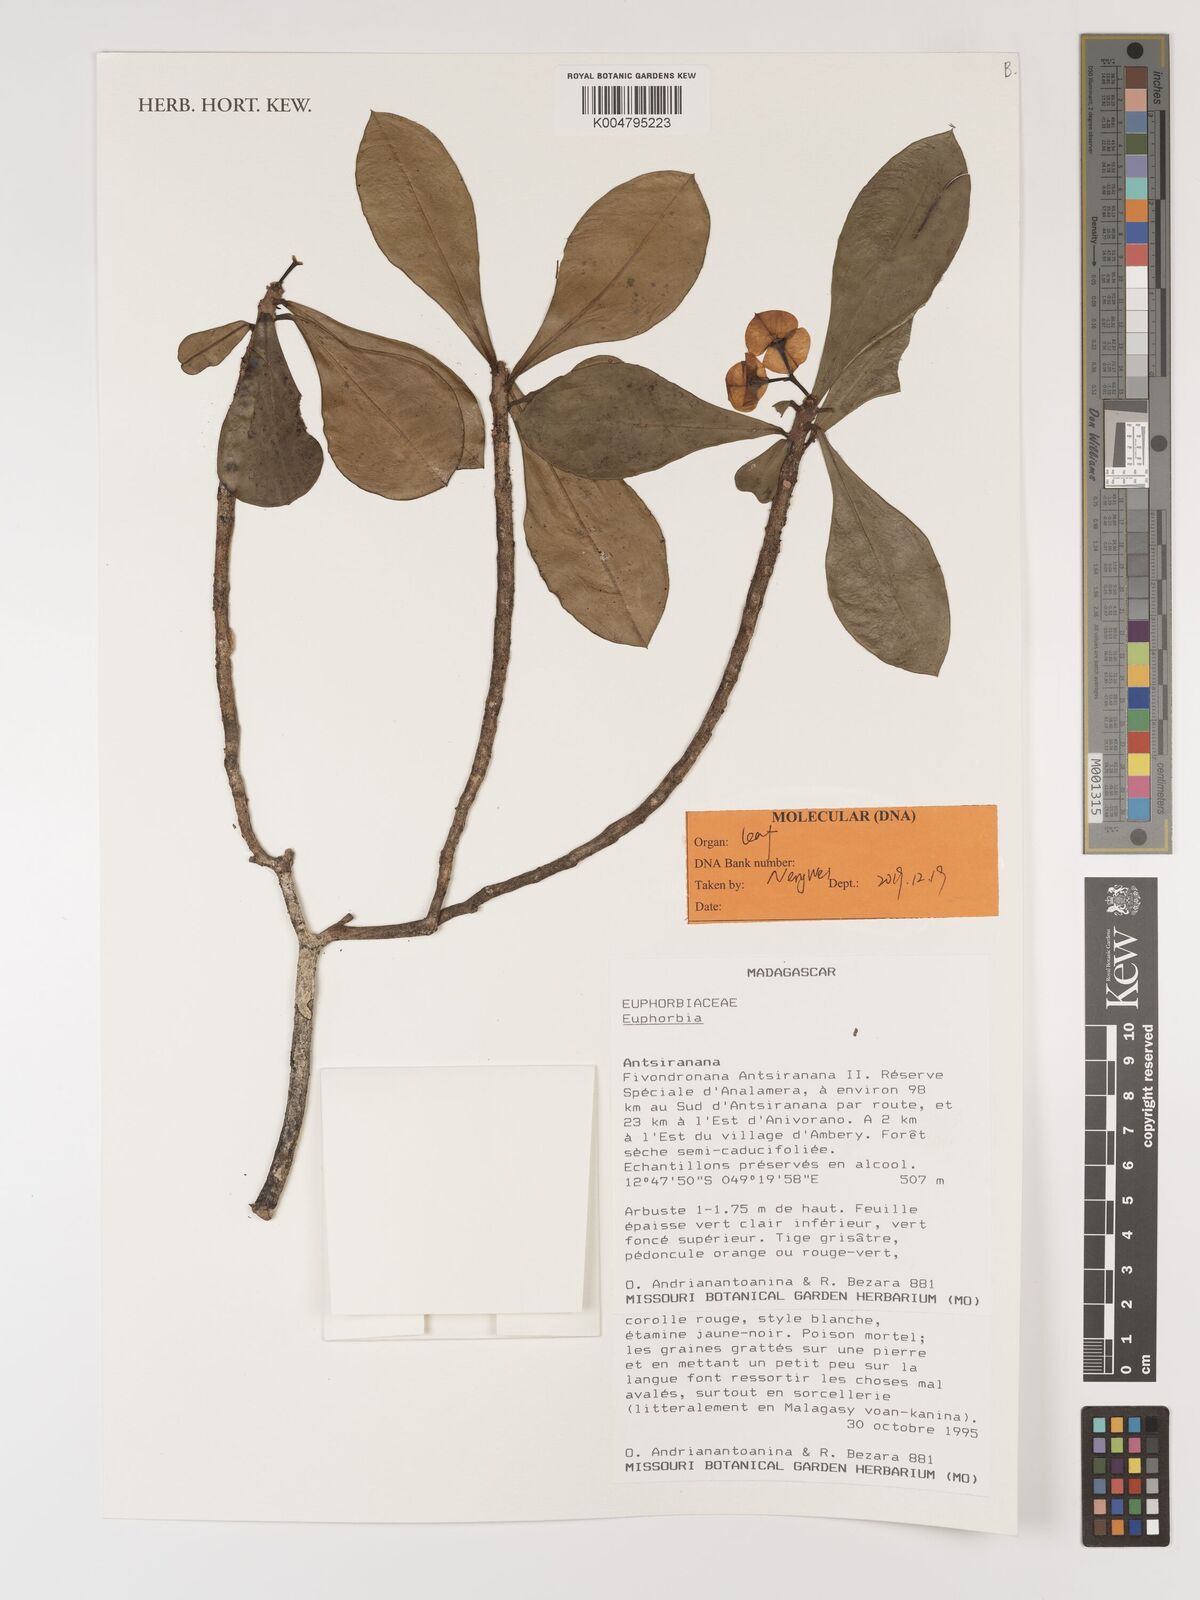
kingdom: Plantae
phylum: Tracheophyta
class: Magnoliopsida
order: Malpighiales
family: Euphorbiaceae
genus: Euphorbia
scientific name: Euphorbia
